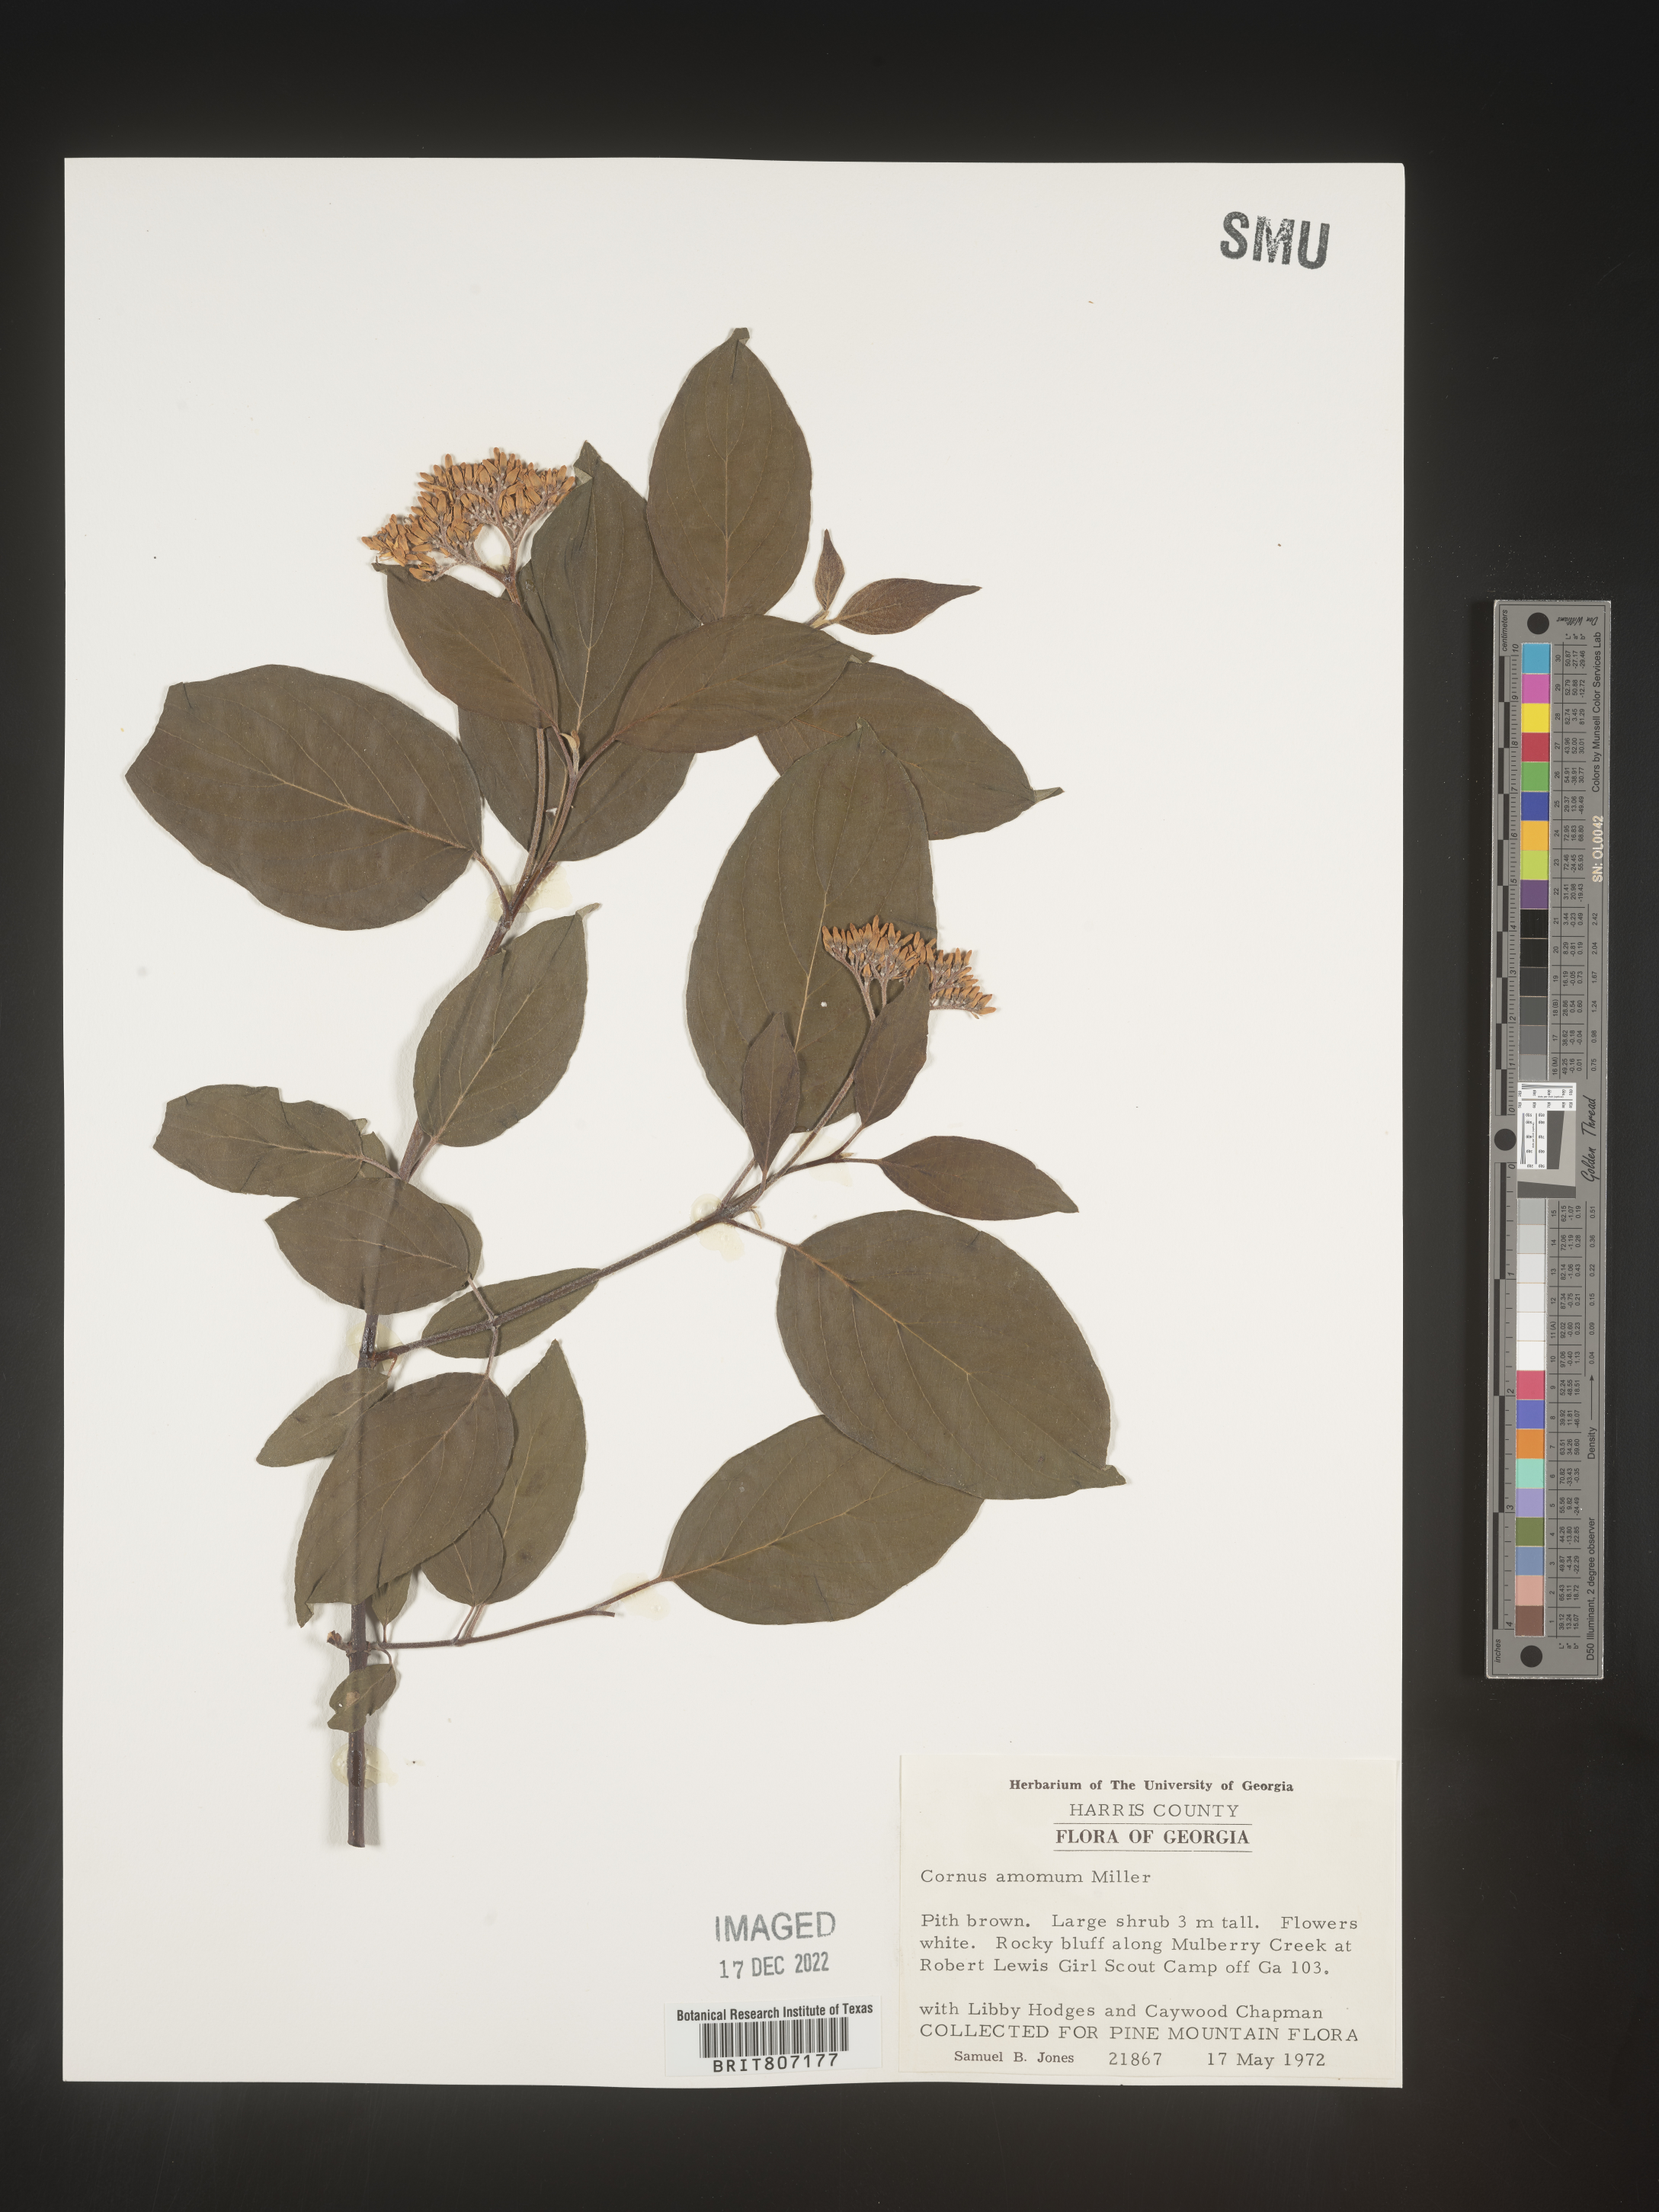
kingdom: Plantae
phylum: Tracheophyta
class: Magnoliopsida
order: Cornales
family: Cornaceae
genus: Cornus
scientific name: Cornus amomum
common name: Silky dogwood
